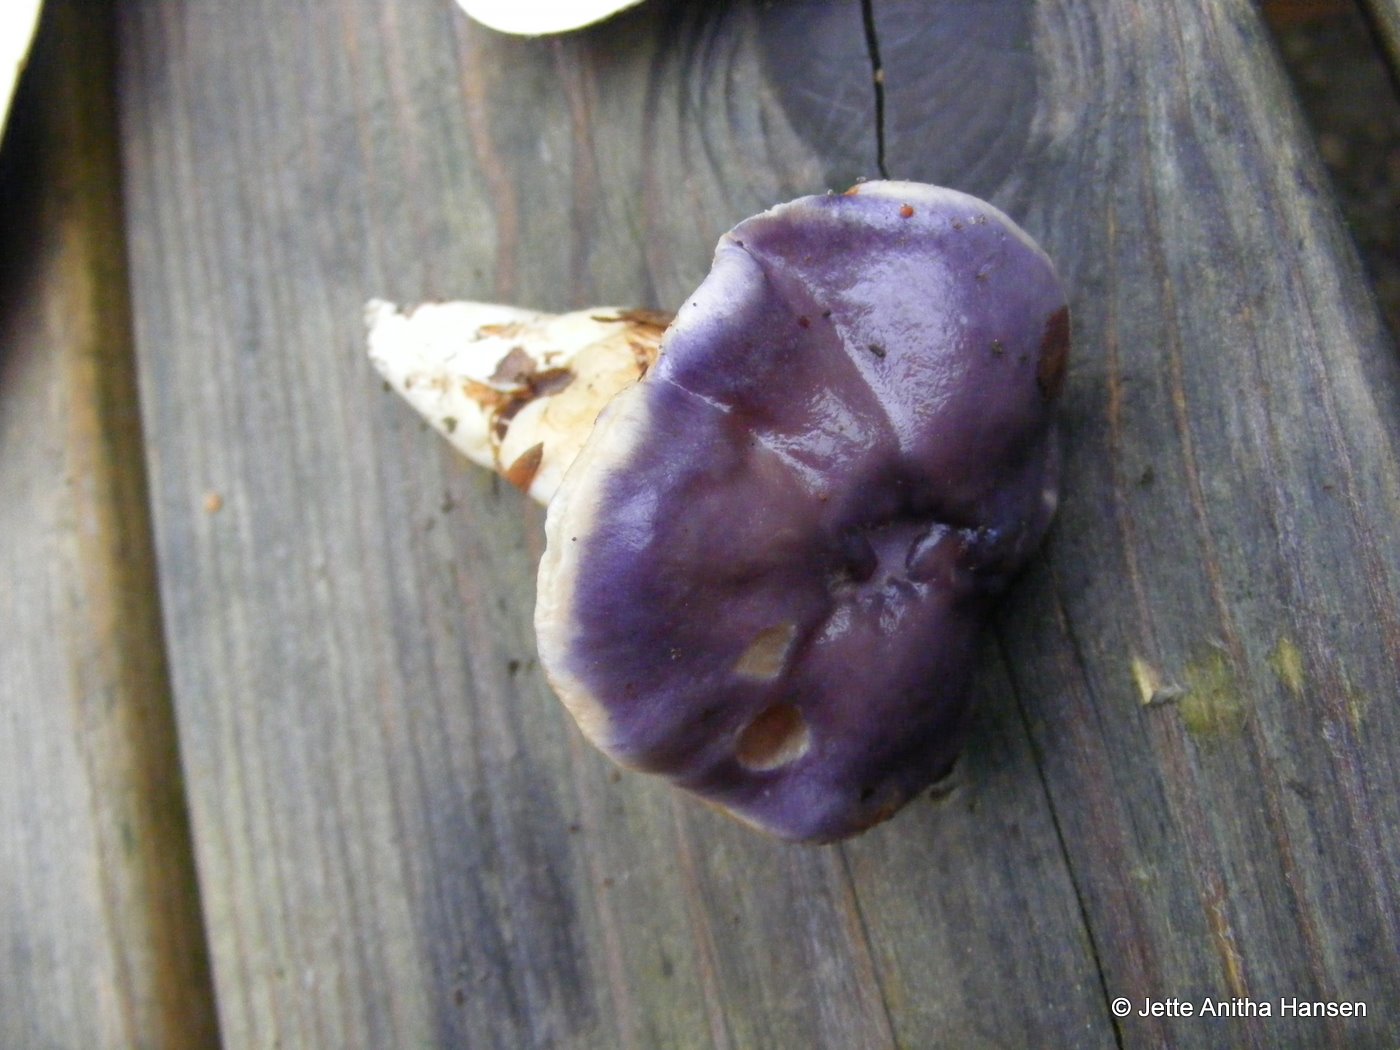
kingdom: Fungi
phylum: Basidiomycota
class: Agaricomycetes
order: Agaricales
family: Cortinariaceae
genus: Thaxterogaster
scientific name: Thaxterogaster croceocoeruleus
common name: blågullig slørhat
